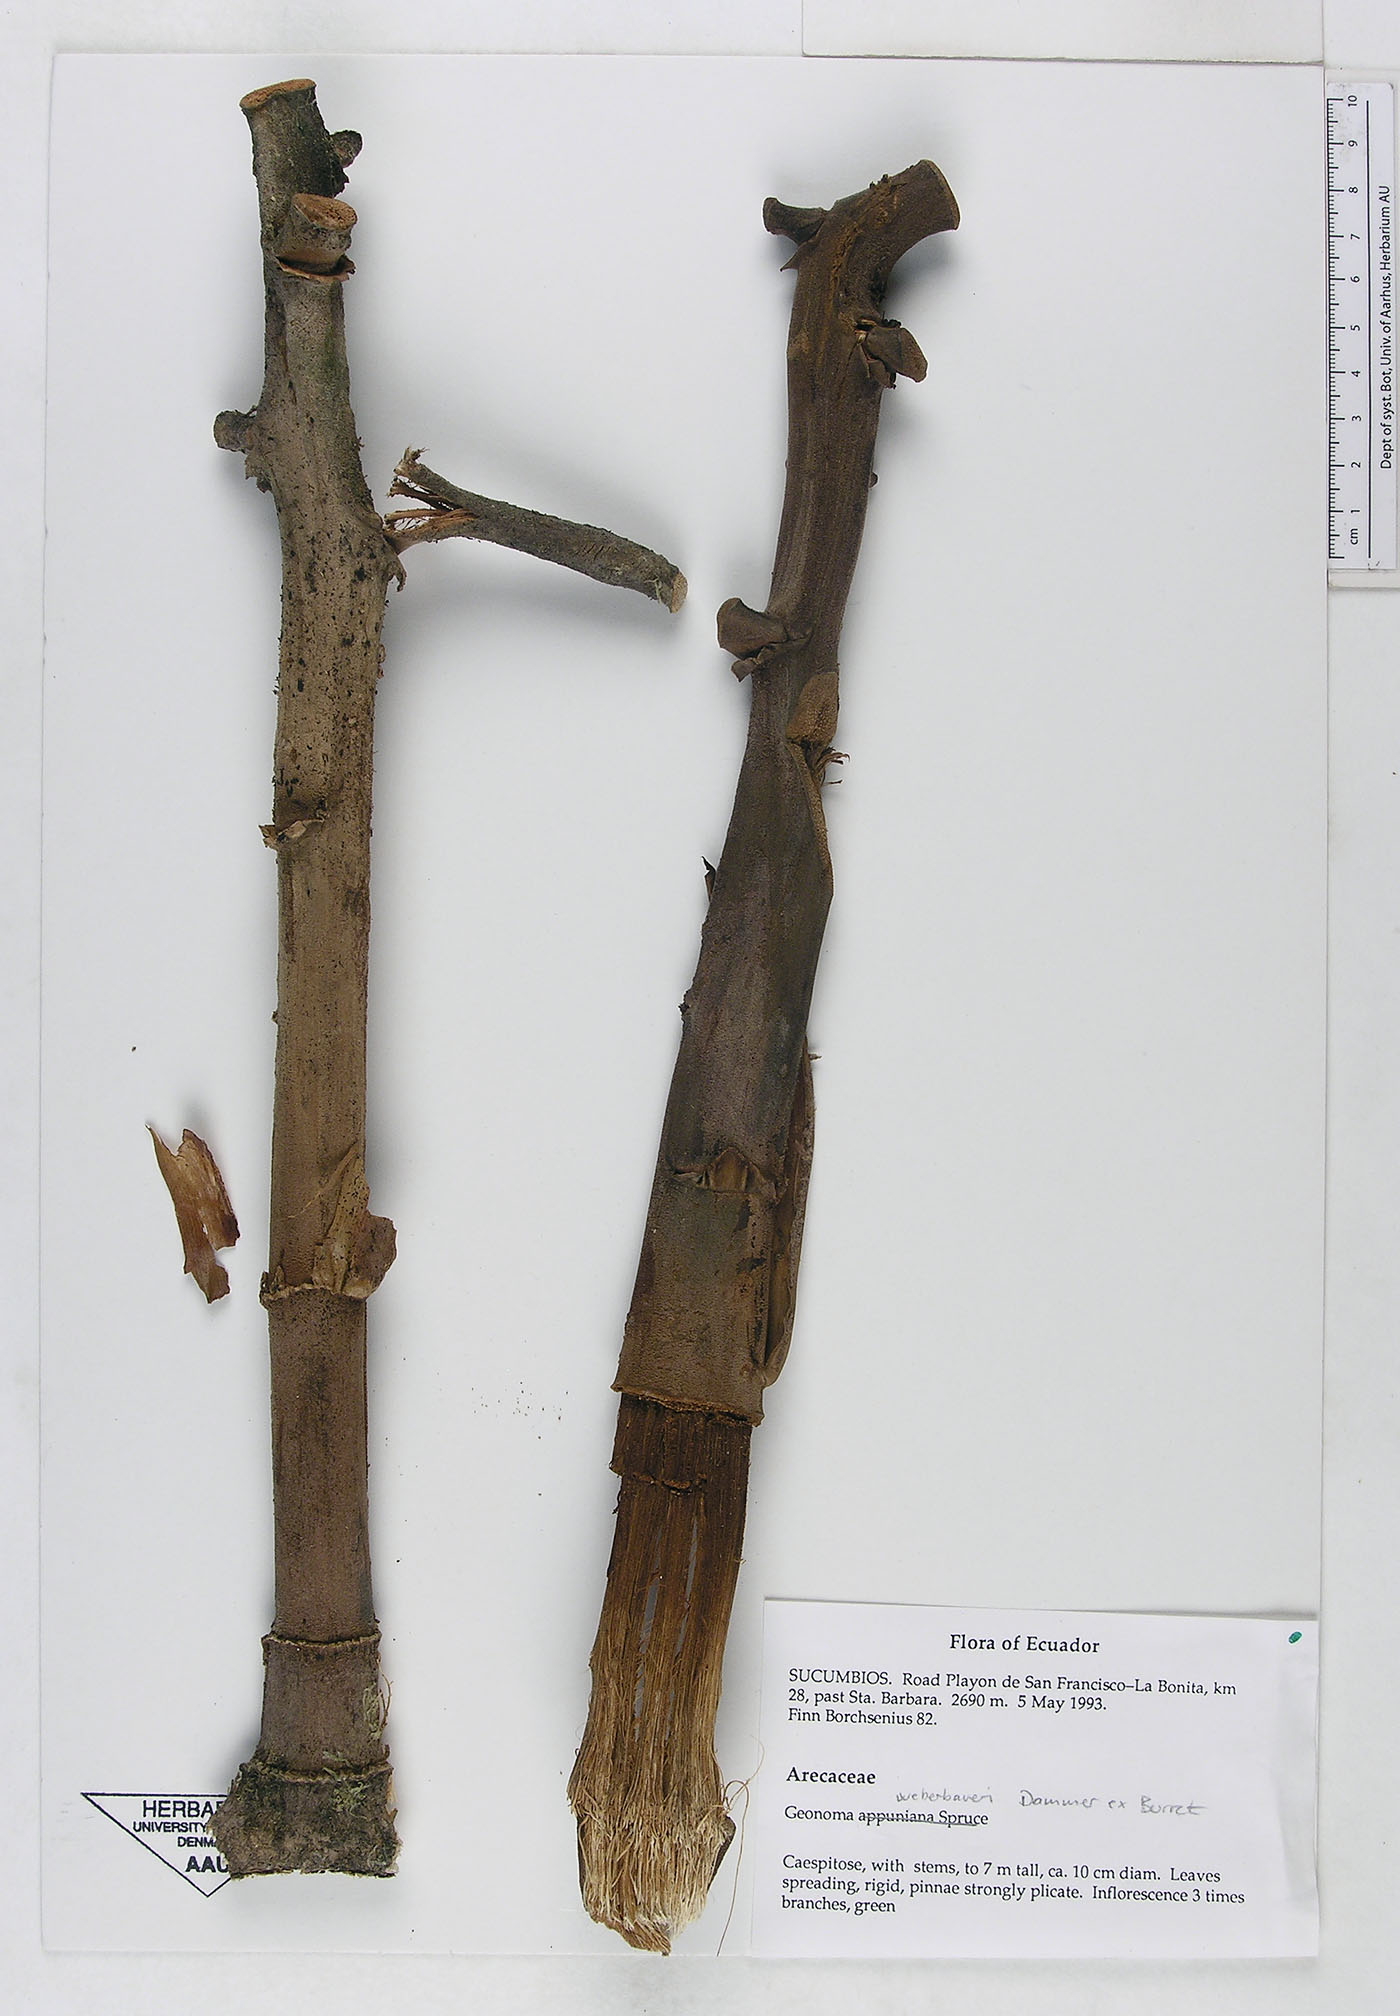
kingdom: Plantae
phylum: Tracheophyta
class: Liliopsida
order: Arecales
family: Arecaceae
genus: Geonoma
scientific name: Geonoma undata
